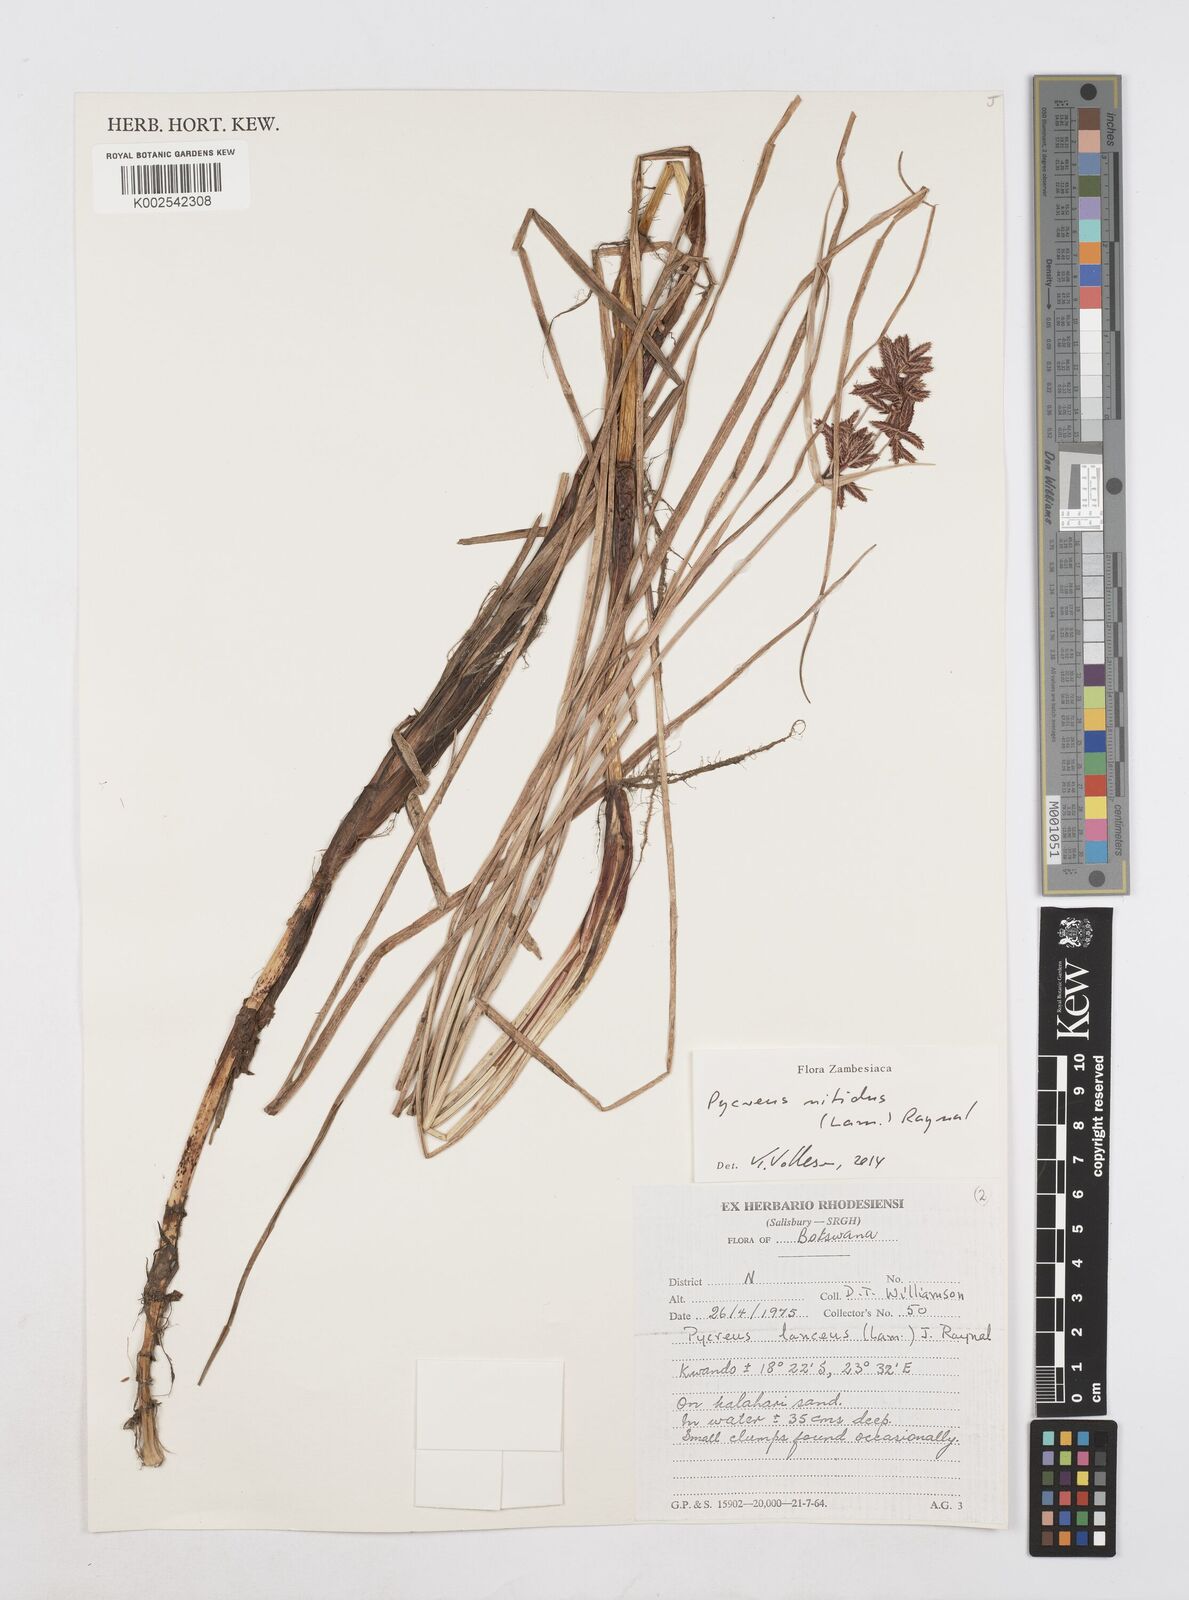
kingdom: Plantae
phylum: Tracheophyta
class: Liliopsida
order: Poales
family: Cyperaceae
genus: Cyperus
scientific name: Cyperus nitidus
